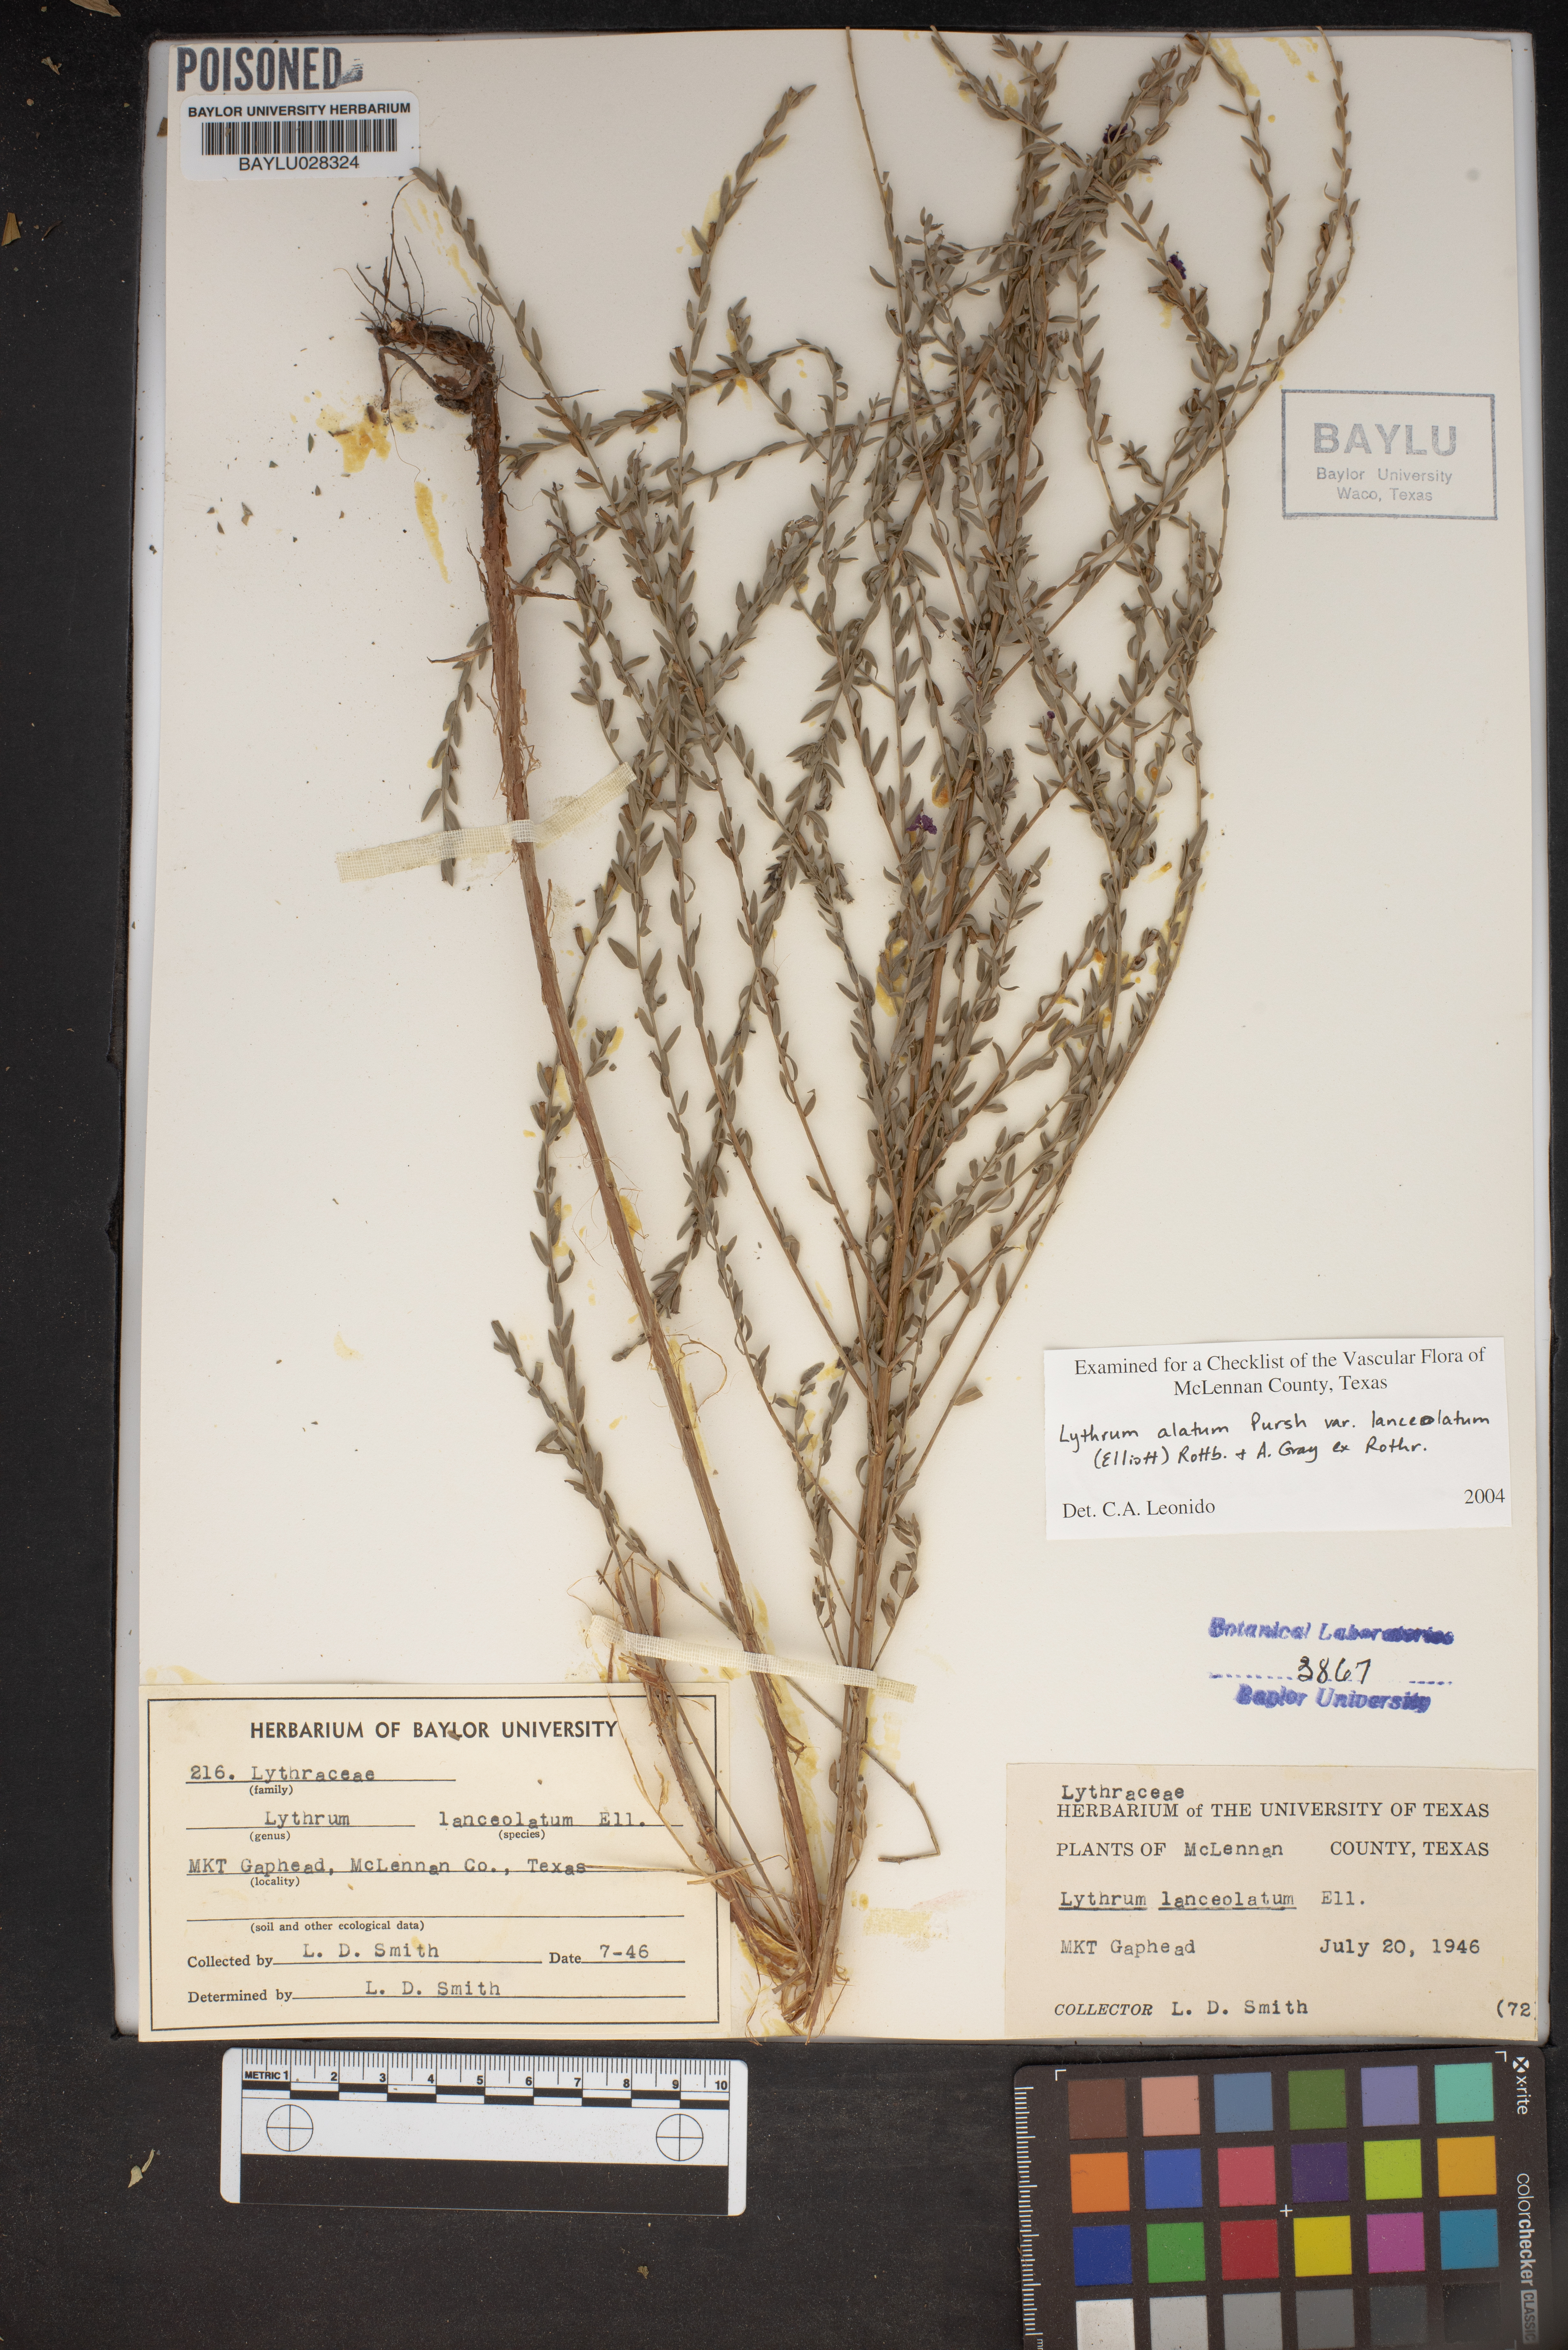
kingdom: Plantae
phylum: Tracheophyta
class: Magnoliopsida
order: Myrtales
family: Lythraceae
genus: Lythrum
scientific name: Lythrum alatum
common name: Winged loosestrife
